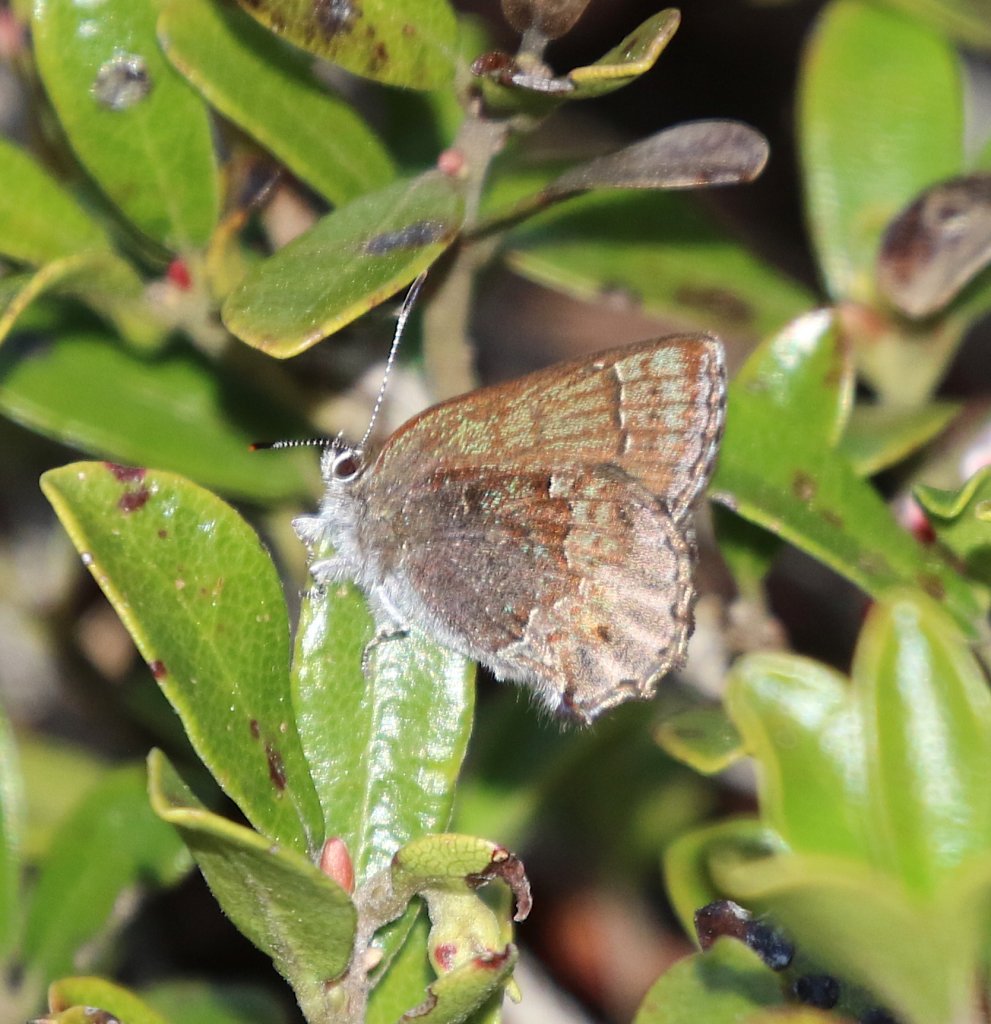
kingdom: Animalia
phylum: Arthropoda
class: Insecta
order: Lepidoptera
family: Lycaenidae
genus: Callophrys
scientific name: Callophrys polios
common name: Hoary Elfin
